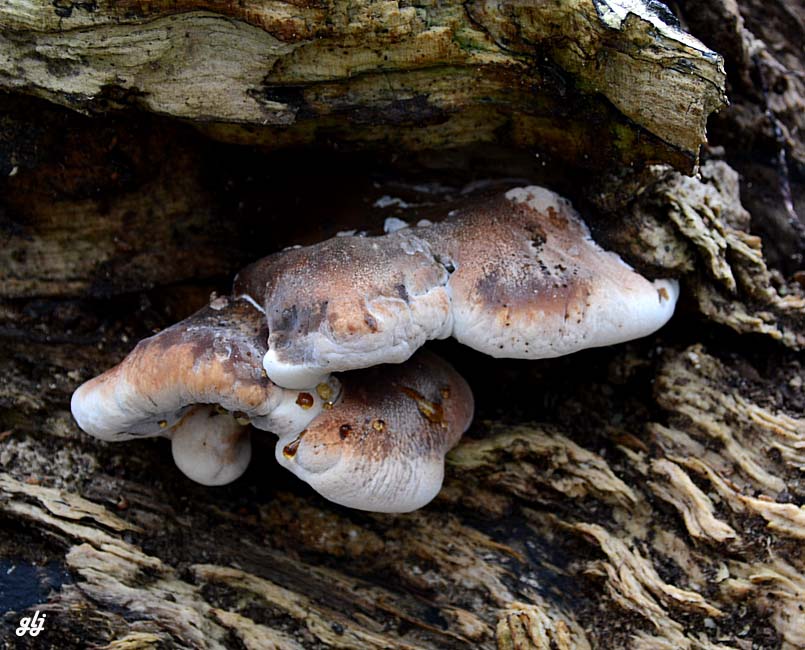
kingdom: Fungi
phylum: Basidiomycota
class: Agaricomycetes
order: Polyporales
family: Ischnodermataceae
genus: Ischnoderma
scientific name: Ischnoderma resinosum
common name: løv-tjæreporesvamp
